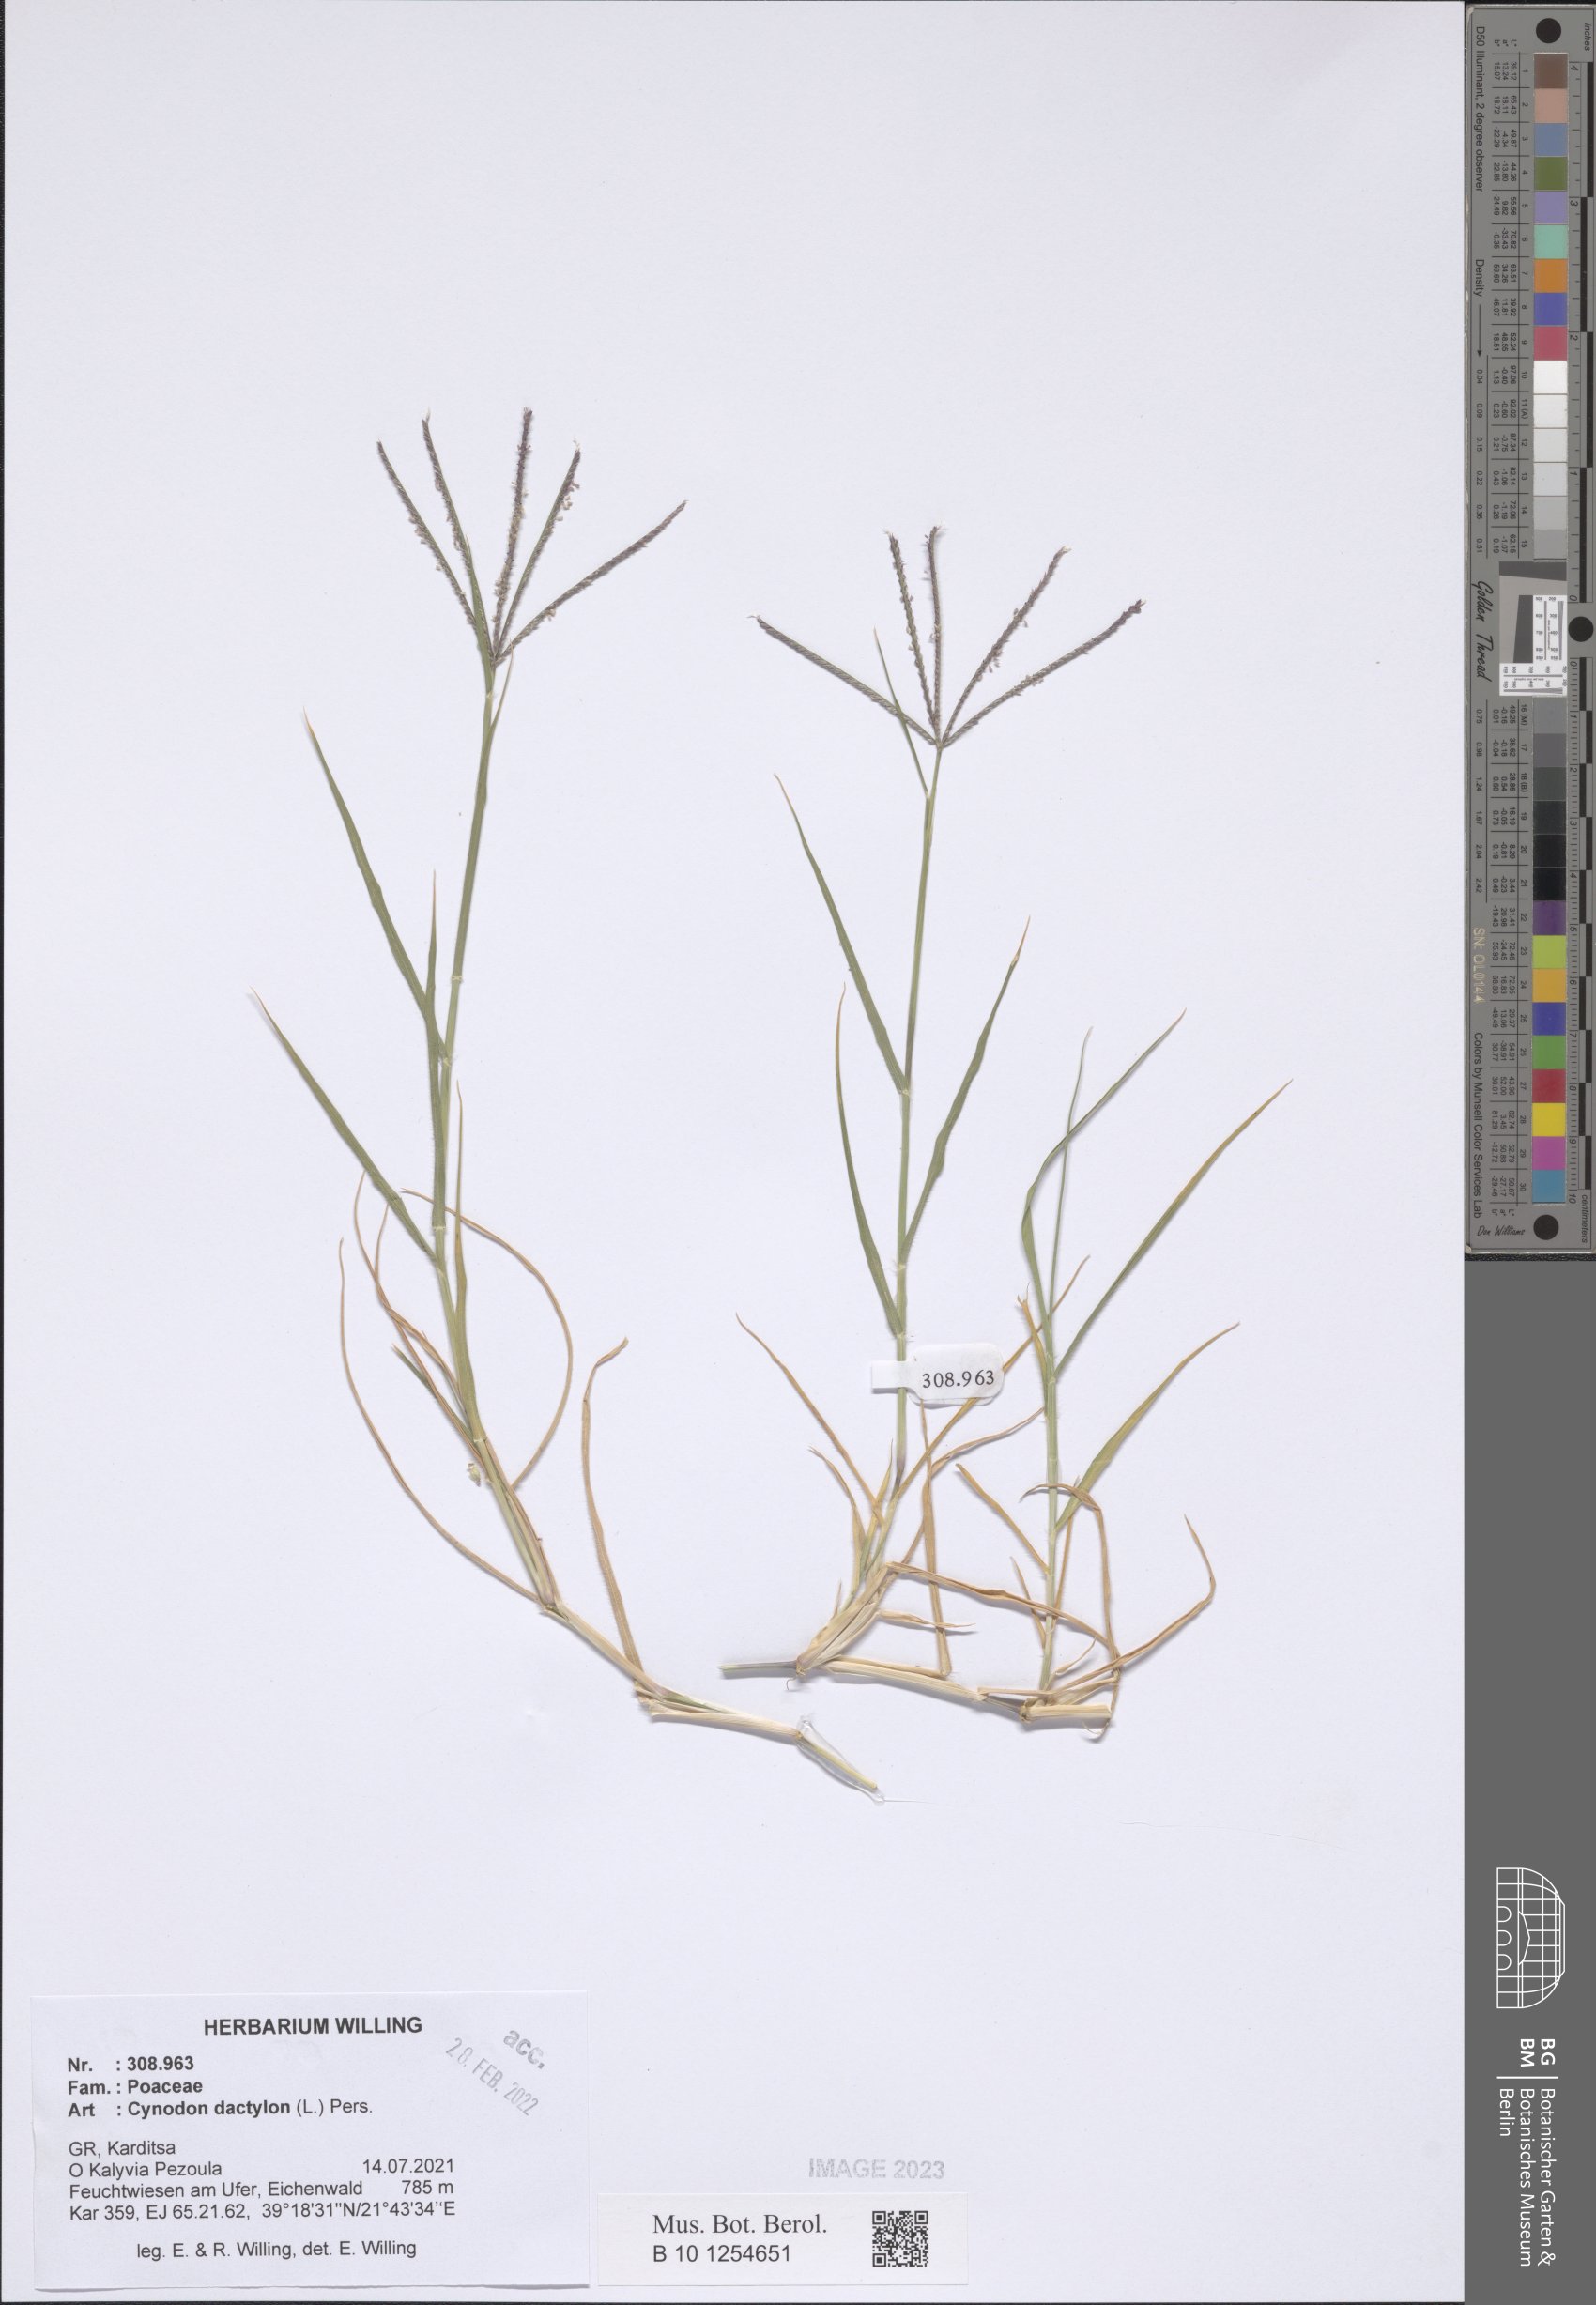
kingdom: Plantae
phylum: Tracheophyta
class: Liliopsida
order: Poales
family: Poaceae
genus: Cynodon
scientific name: Cynodon dactylon
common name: Bermuda grass
